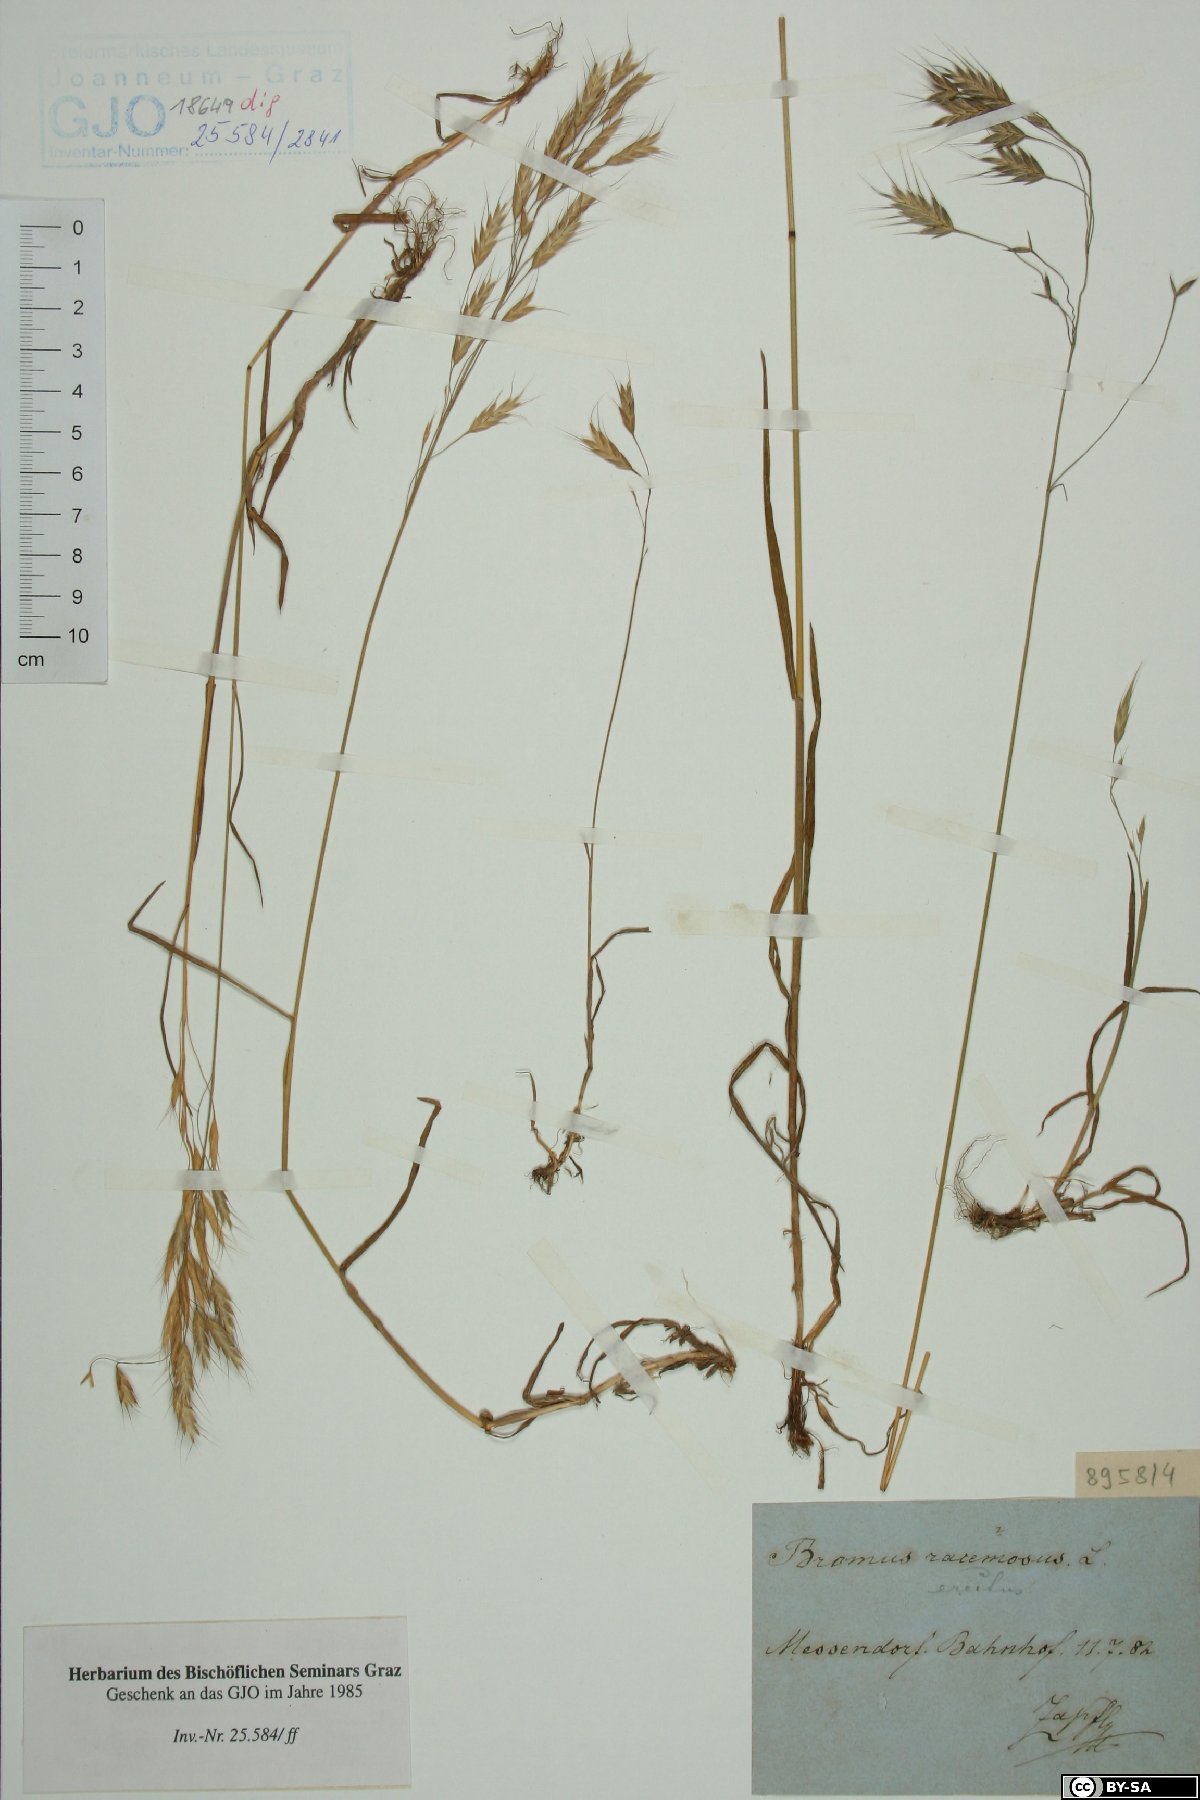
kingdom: Plantae
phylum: Tracheophyta
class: Liliopsida
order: Poales
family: Poaceae
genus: Bromus
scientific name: Bromus racemosus
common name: Bald brome
